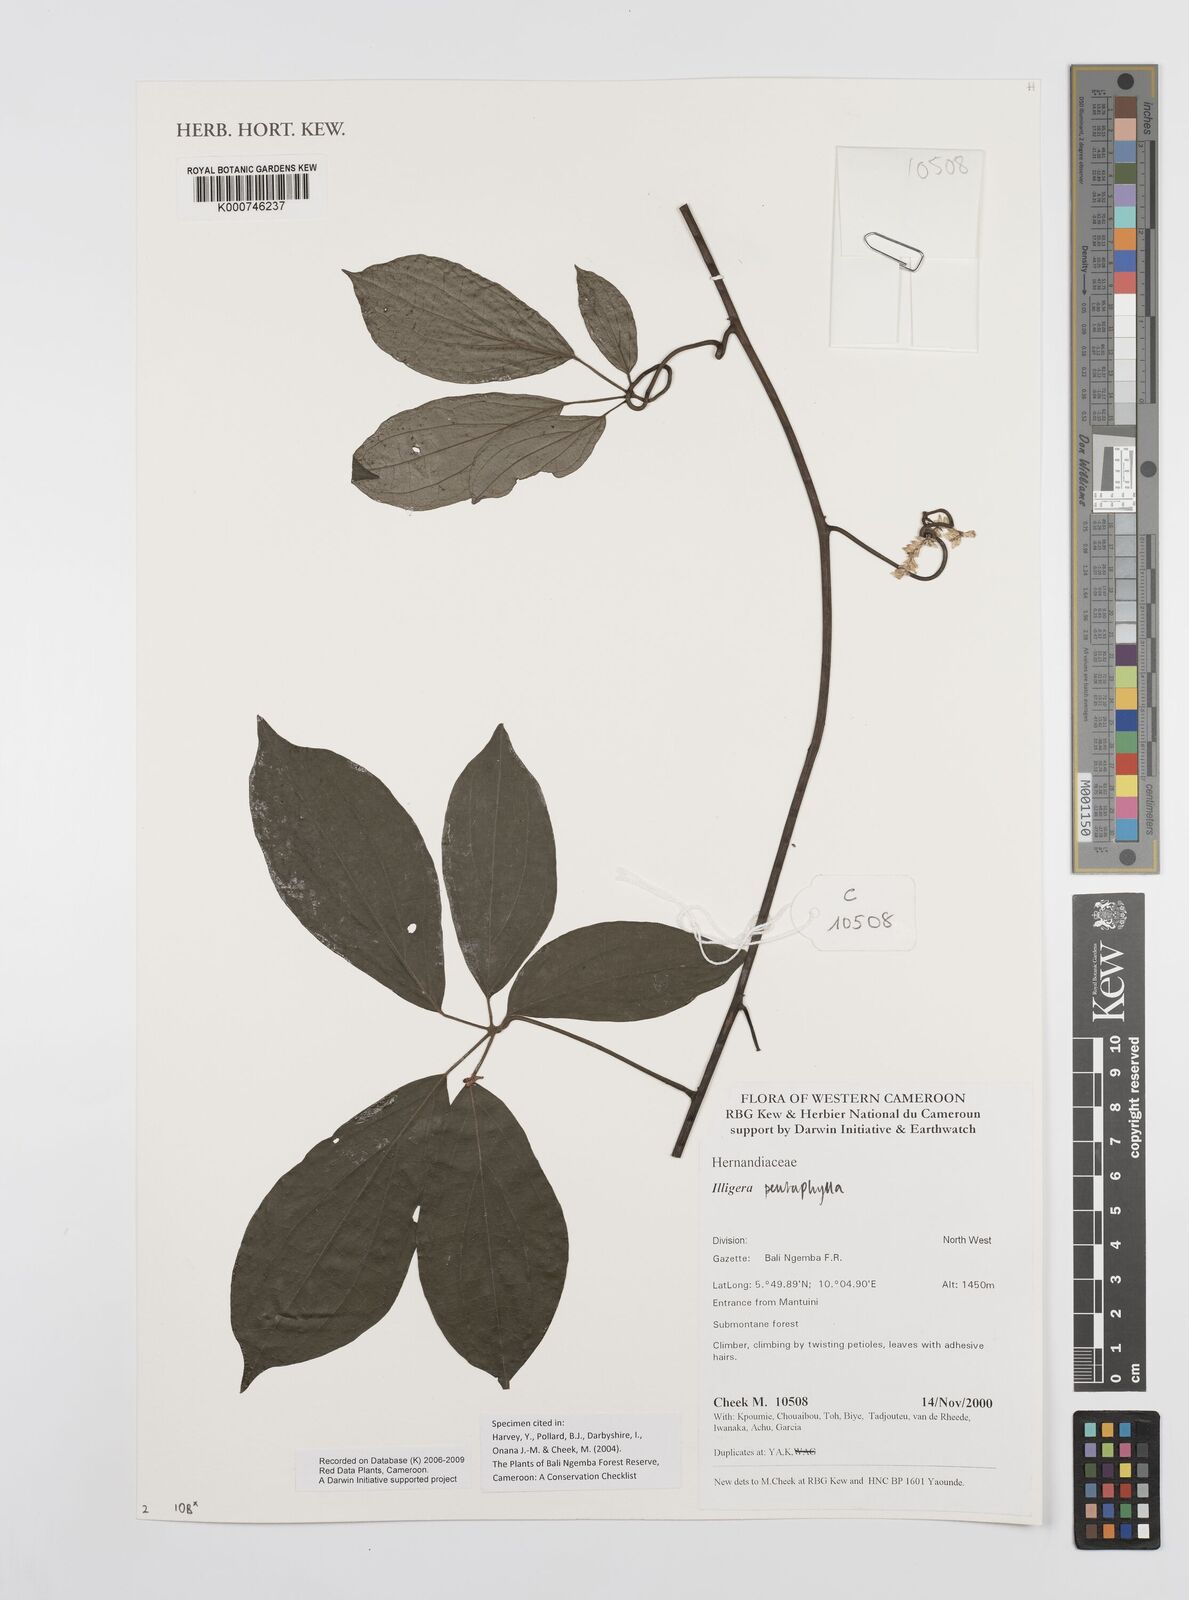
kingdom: Plantae
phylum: Tracheophyta
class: Magnoliopsida
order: Laurales
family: Hernandiaceae
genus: Illigera
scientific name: Illigera pentaphylla
